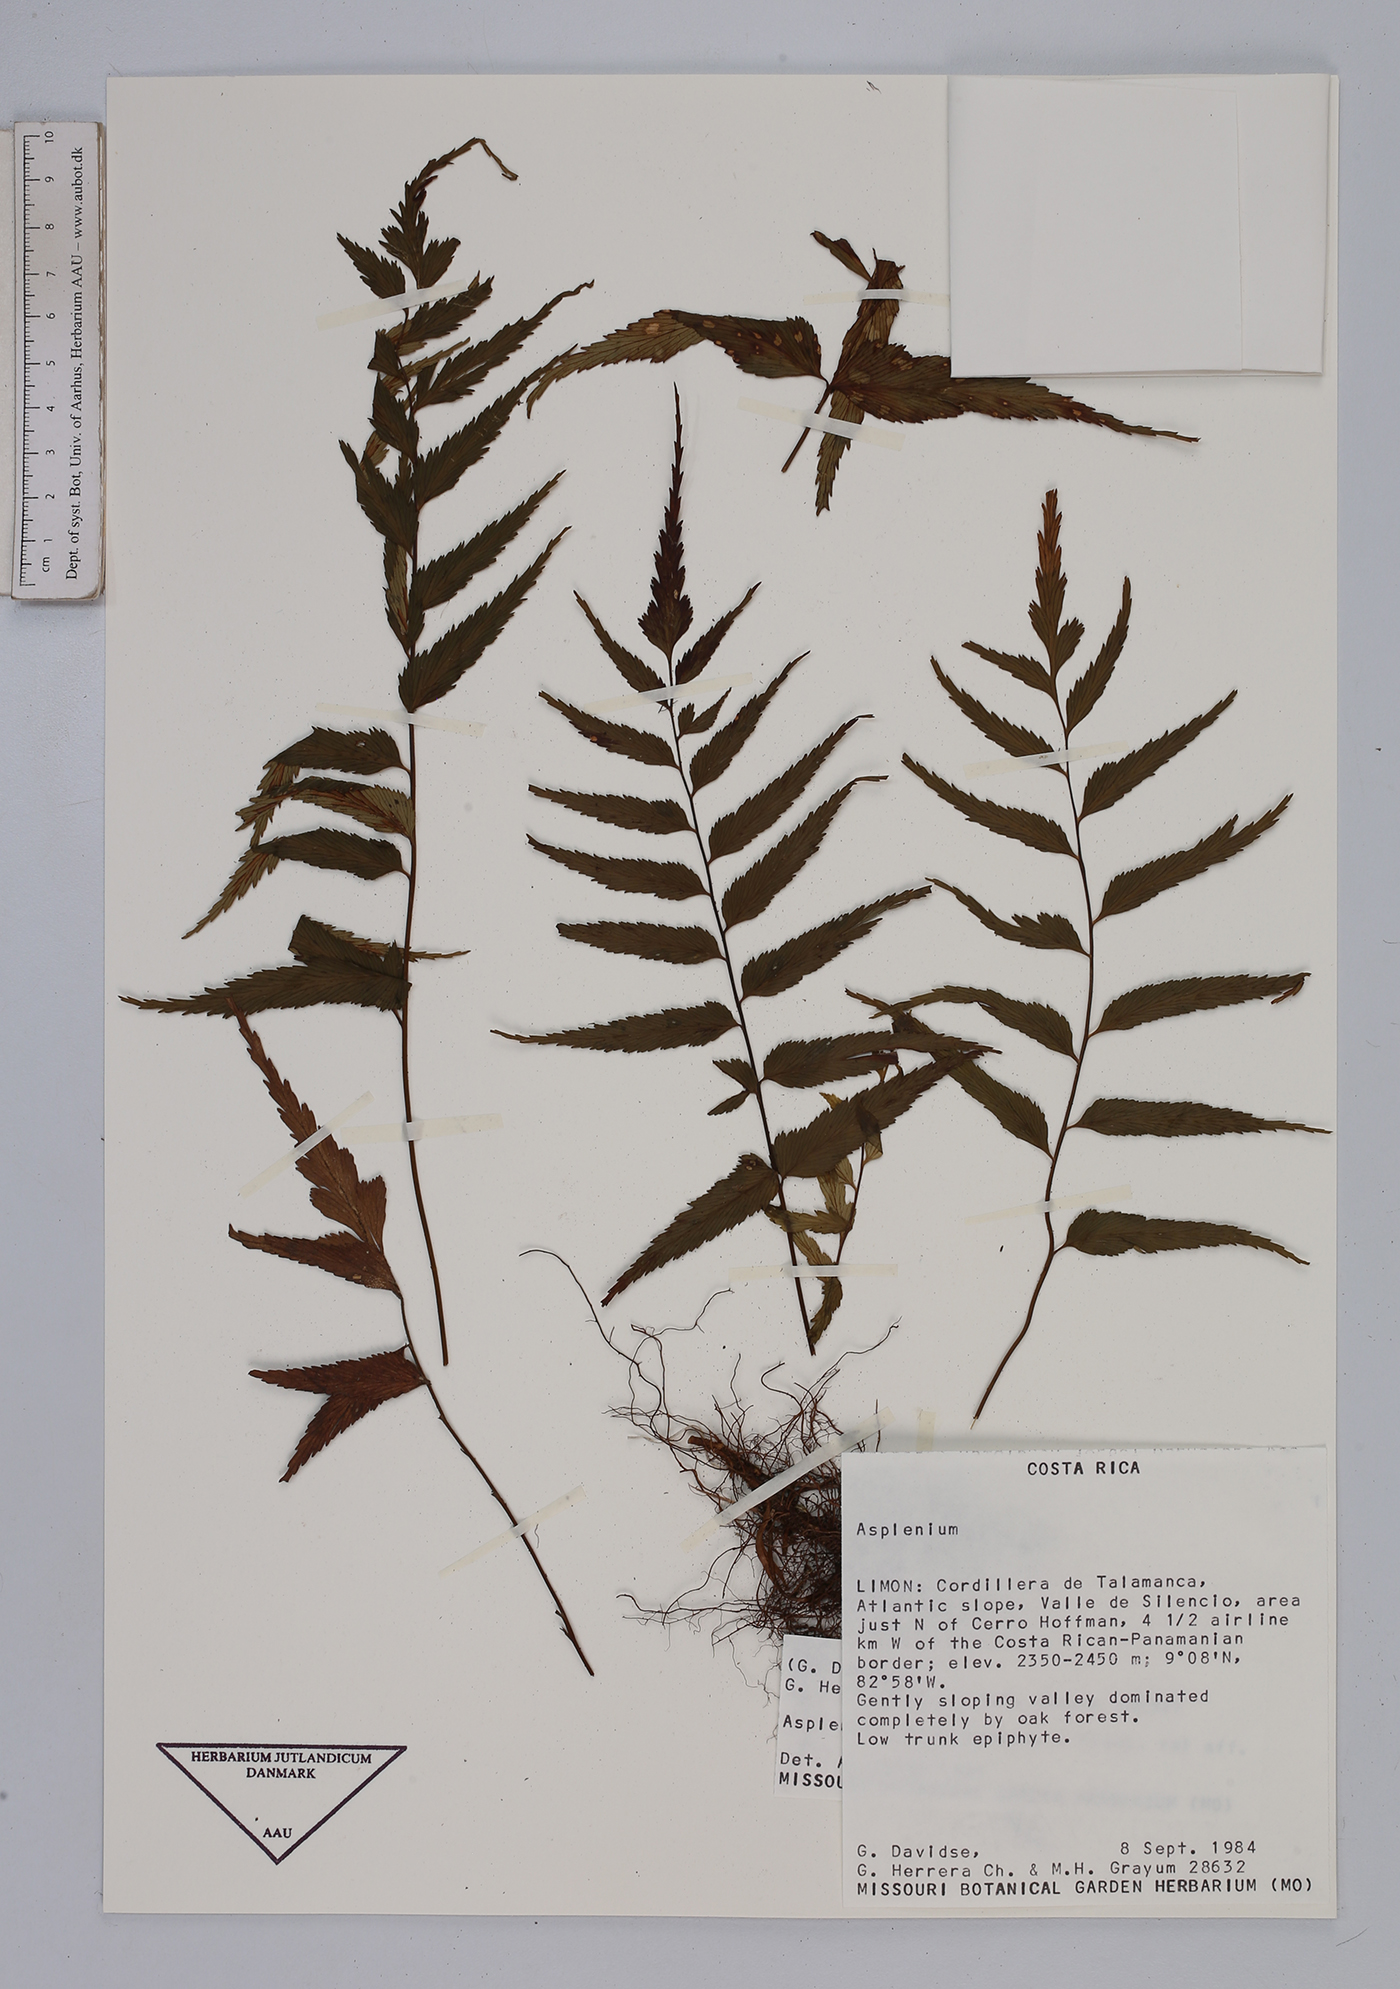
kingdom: Plantae
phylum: Tracheophyta
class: Polypodiopsida
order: Polypodiales
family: Aspleniaceae
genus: Asplenium
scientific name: Asplenium serra
